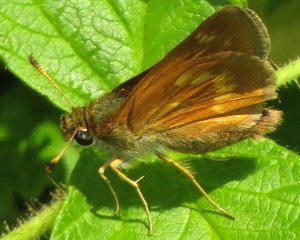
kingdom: Animalia
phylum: Arthropoda
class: Insecta
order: Lepidoptera
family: Hesperiidae
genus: Polites
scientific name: Polites
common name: Long Dash Skipper
